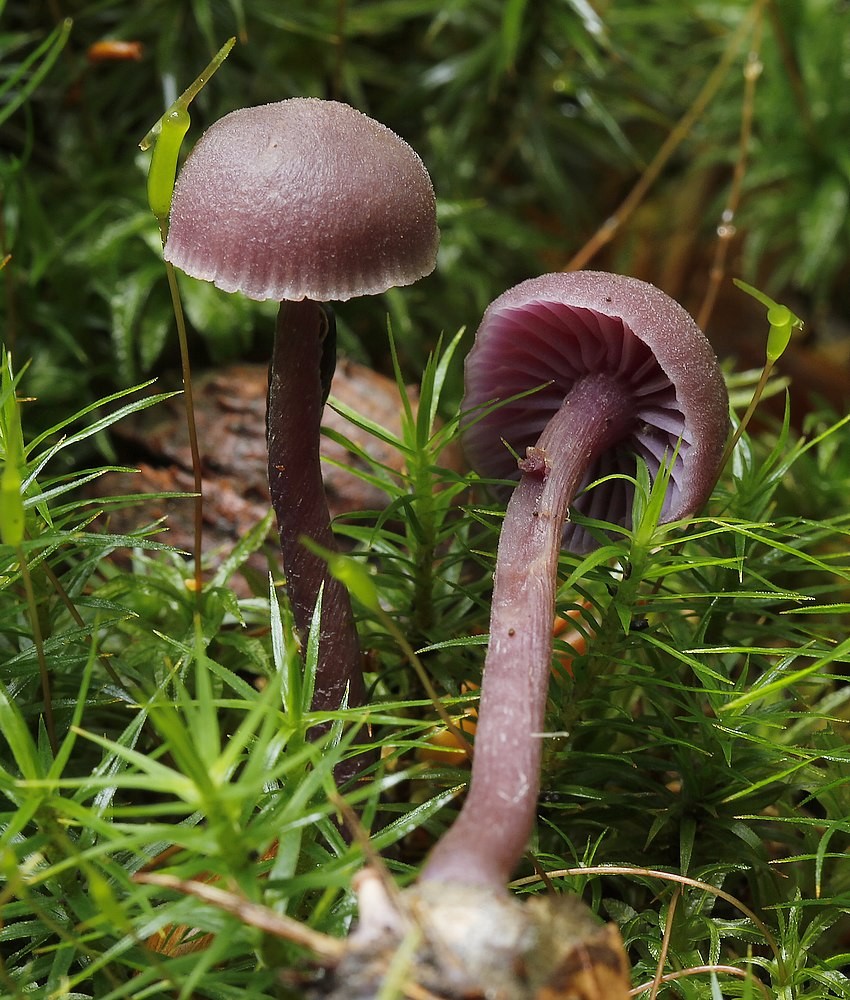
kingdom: Fungi
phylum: Basidiomycota
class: Agaricomycetes
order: Agaricales
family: Hydnangiaceae
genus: Laccaria
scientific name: Laccaria amethystina
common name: violet ametysthat
